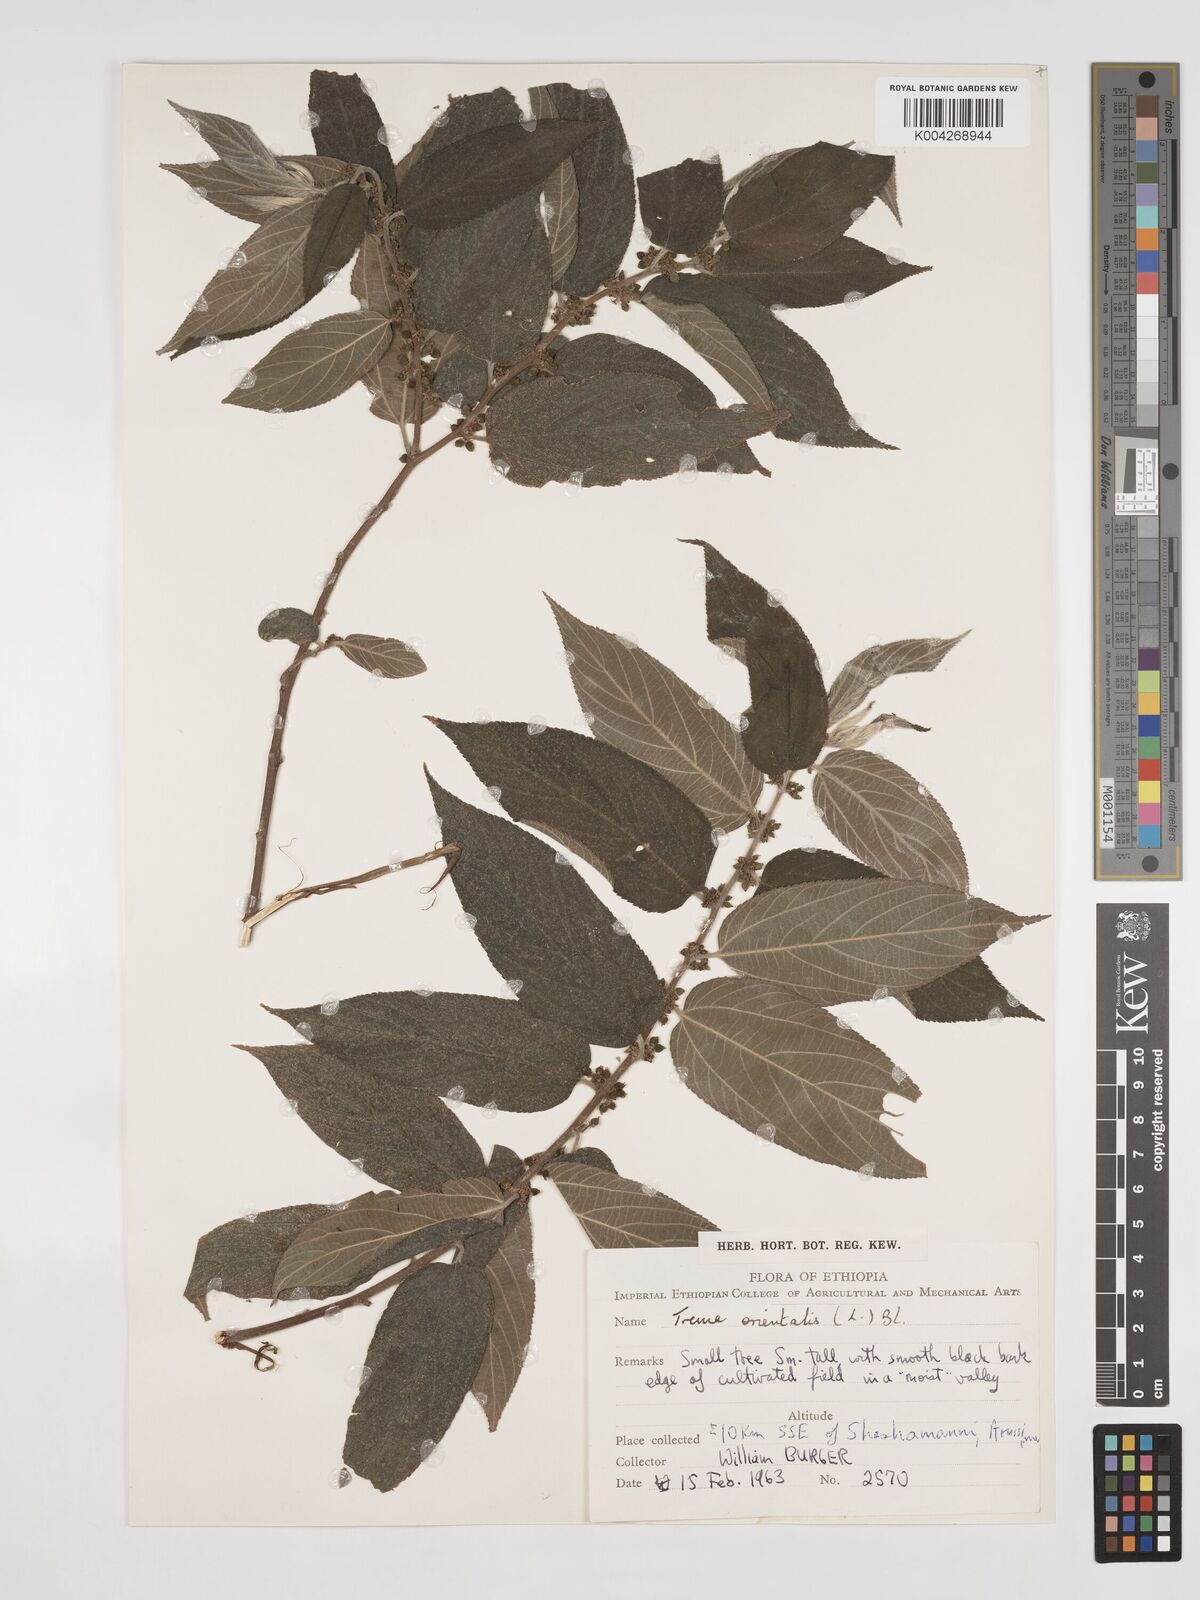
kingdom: Plantae
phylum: Tracheophyta
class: Magnoliopsida
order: Rosales
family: Cannabaceae
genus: Trema
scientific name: Trema orientale
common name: Indian charcoal tree
